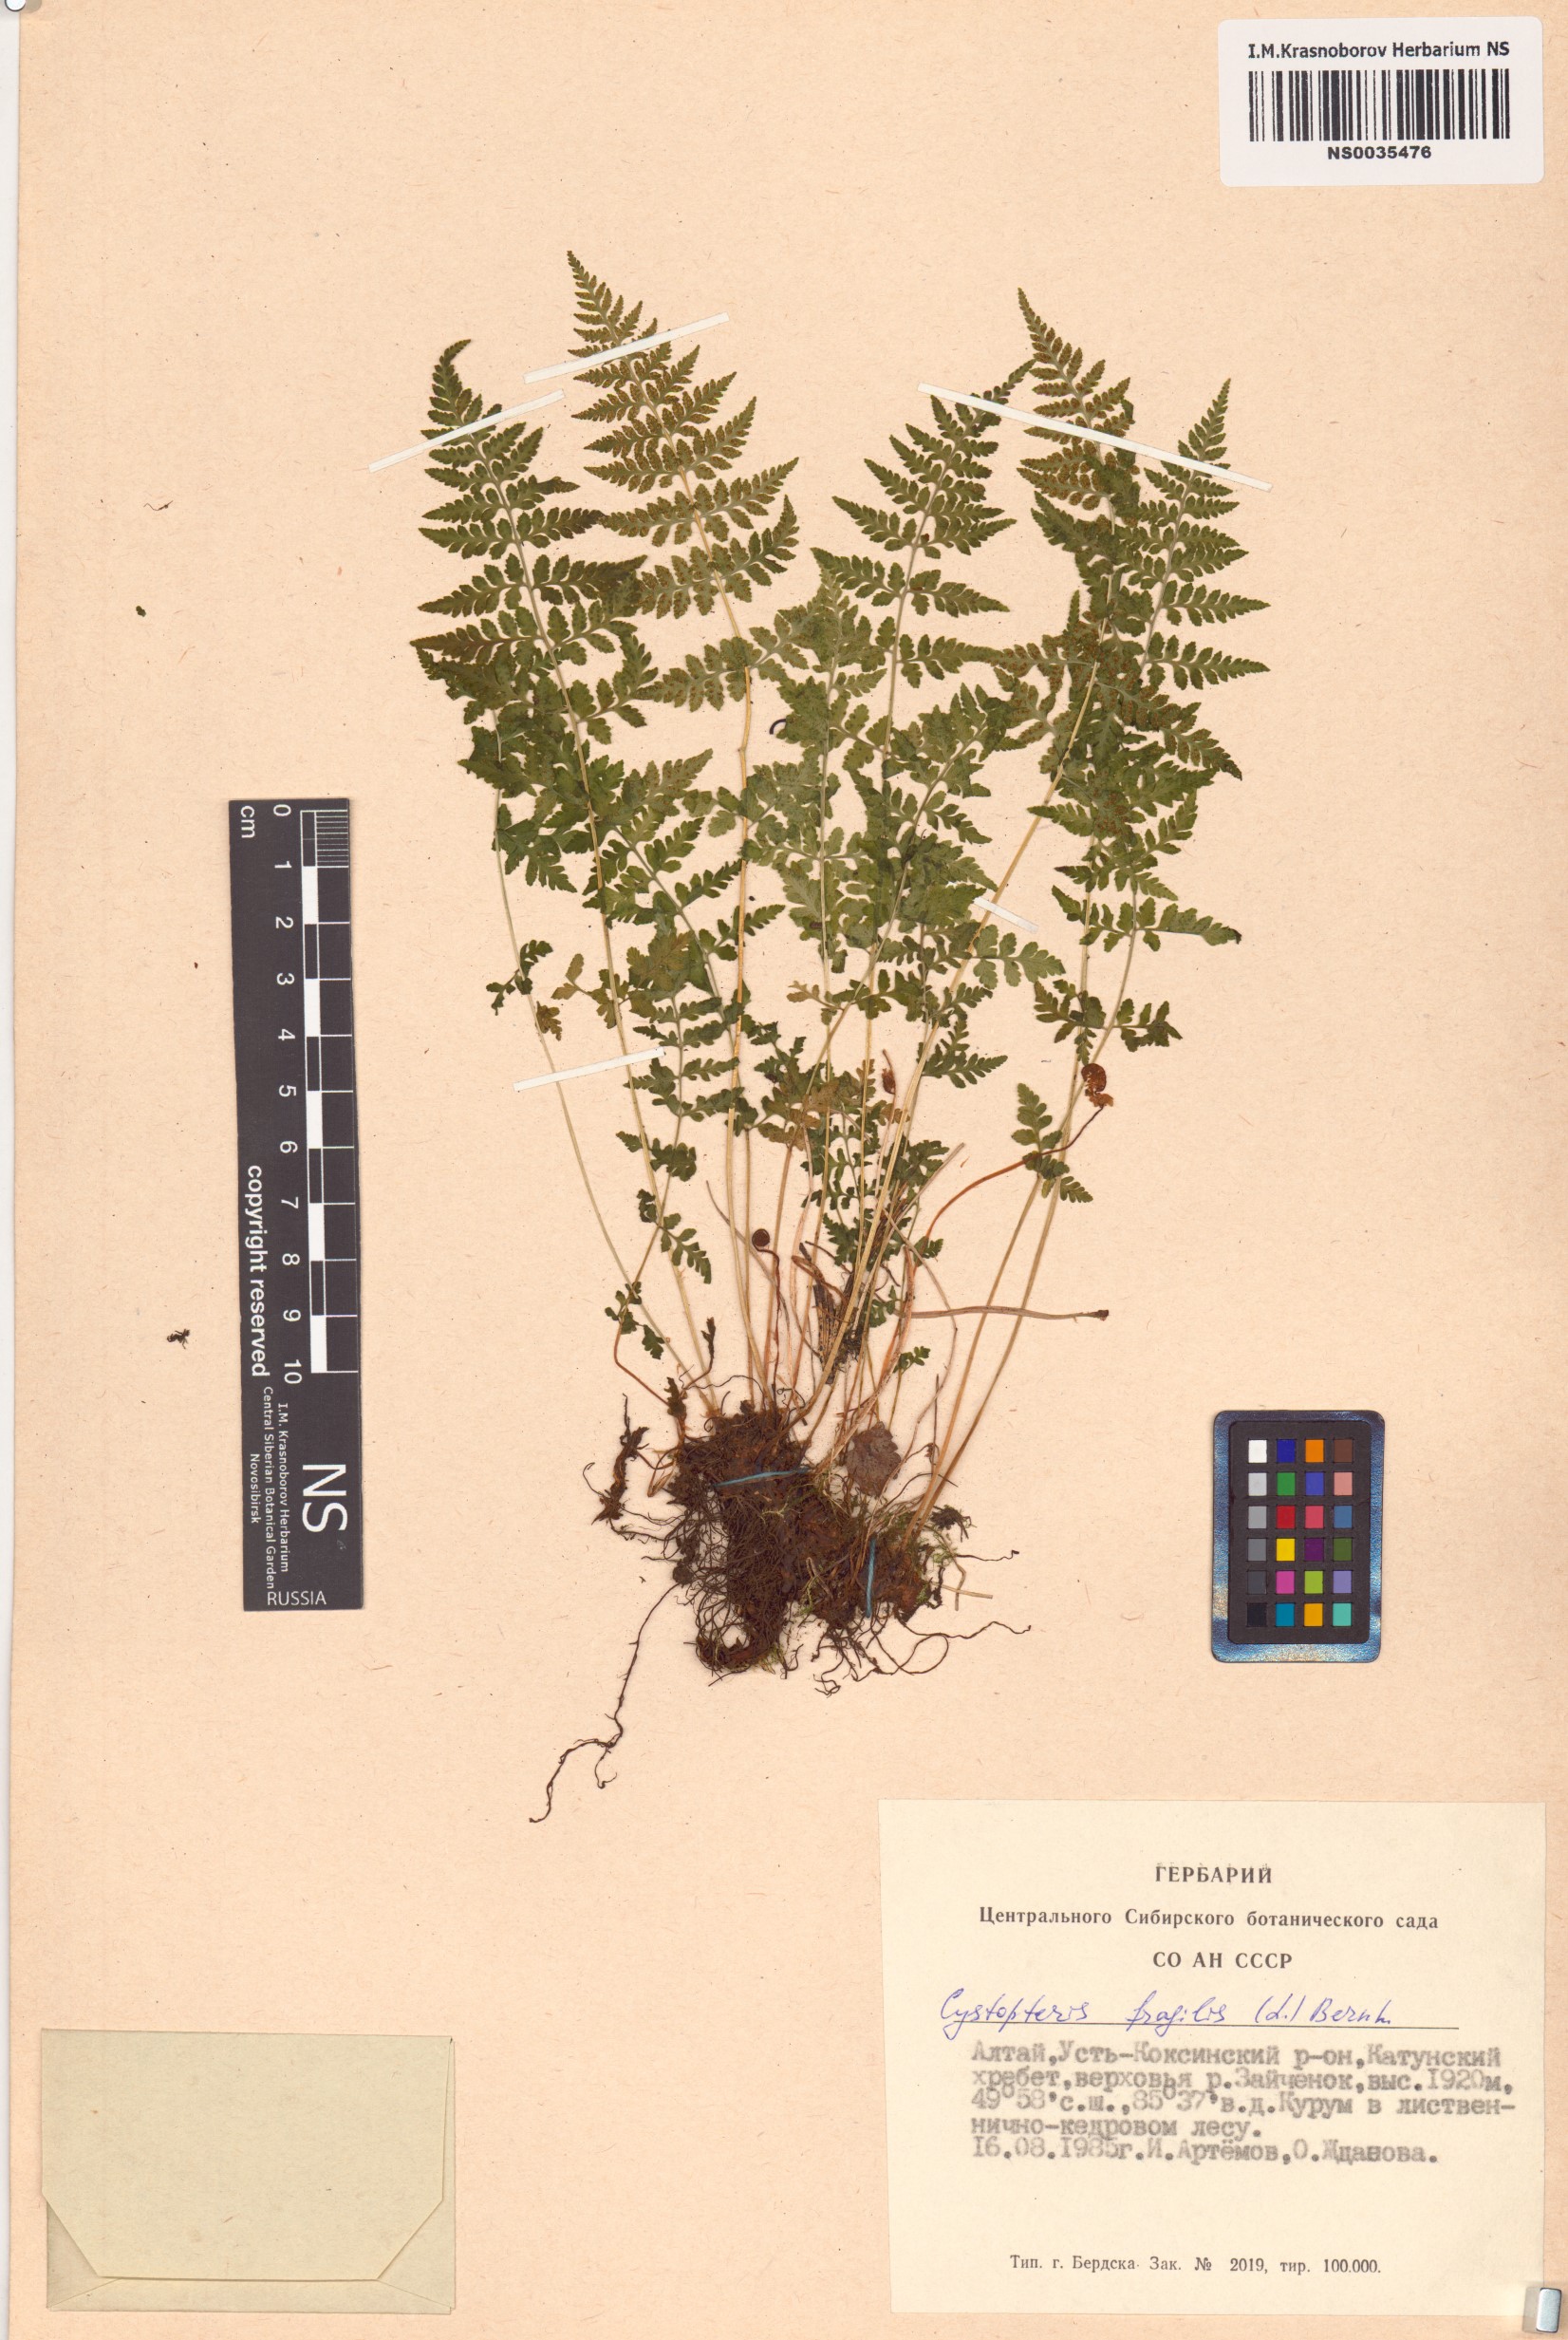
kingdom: Plantae
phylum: Tracheophyta
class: Polypodiopsida
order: Polypodiales
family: Cystopteridaceae
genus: Cystopteris
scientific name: Cystopteris fragilis
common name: Brittle bladder fern
